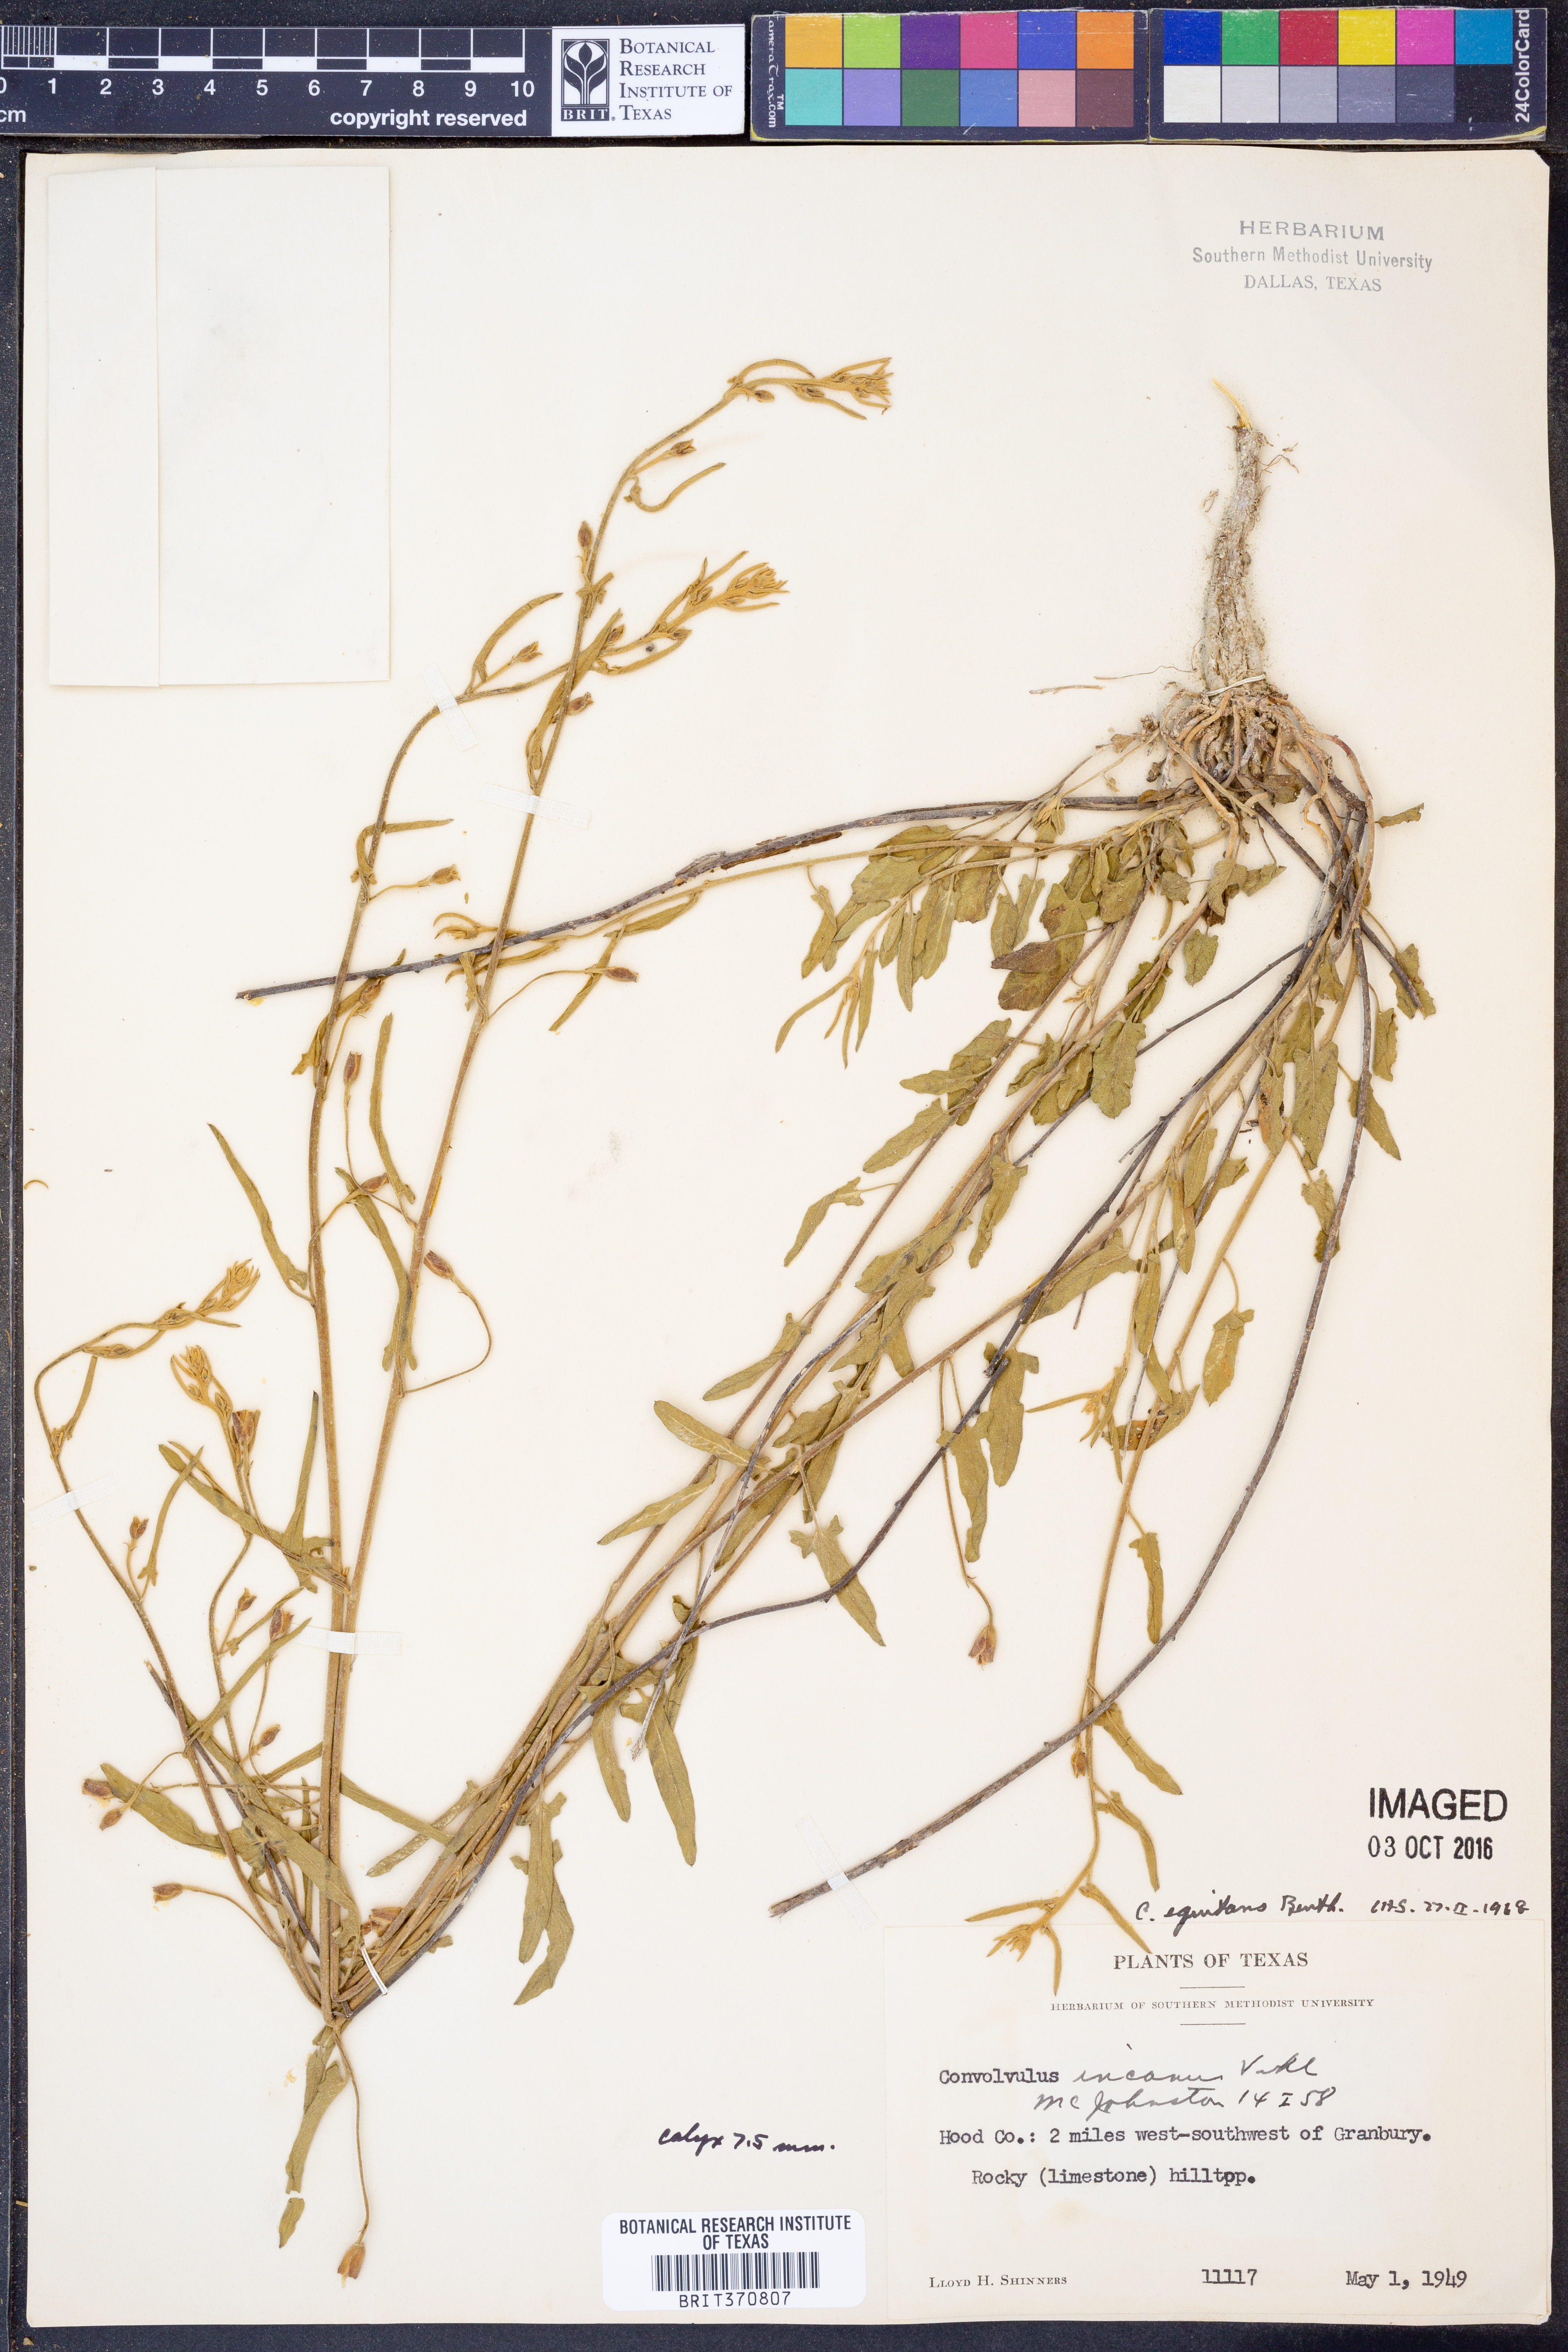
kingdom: Plantae
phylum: Tracheophyta
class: Magnoliopsida
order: Solanales
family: Convolvulaceae
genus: Convolvulus
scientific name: Convolvulus equitans
